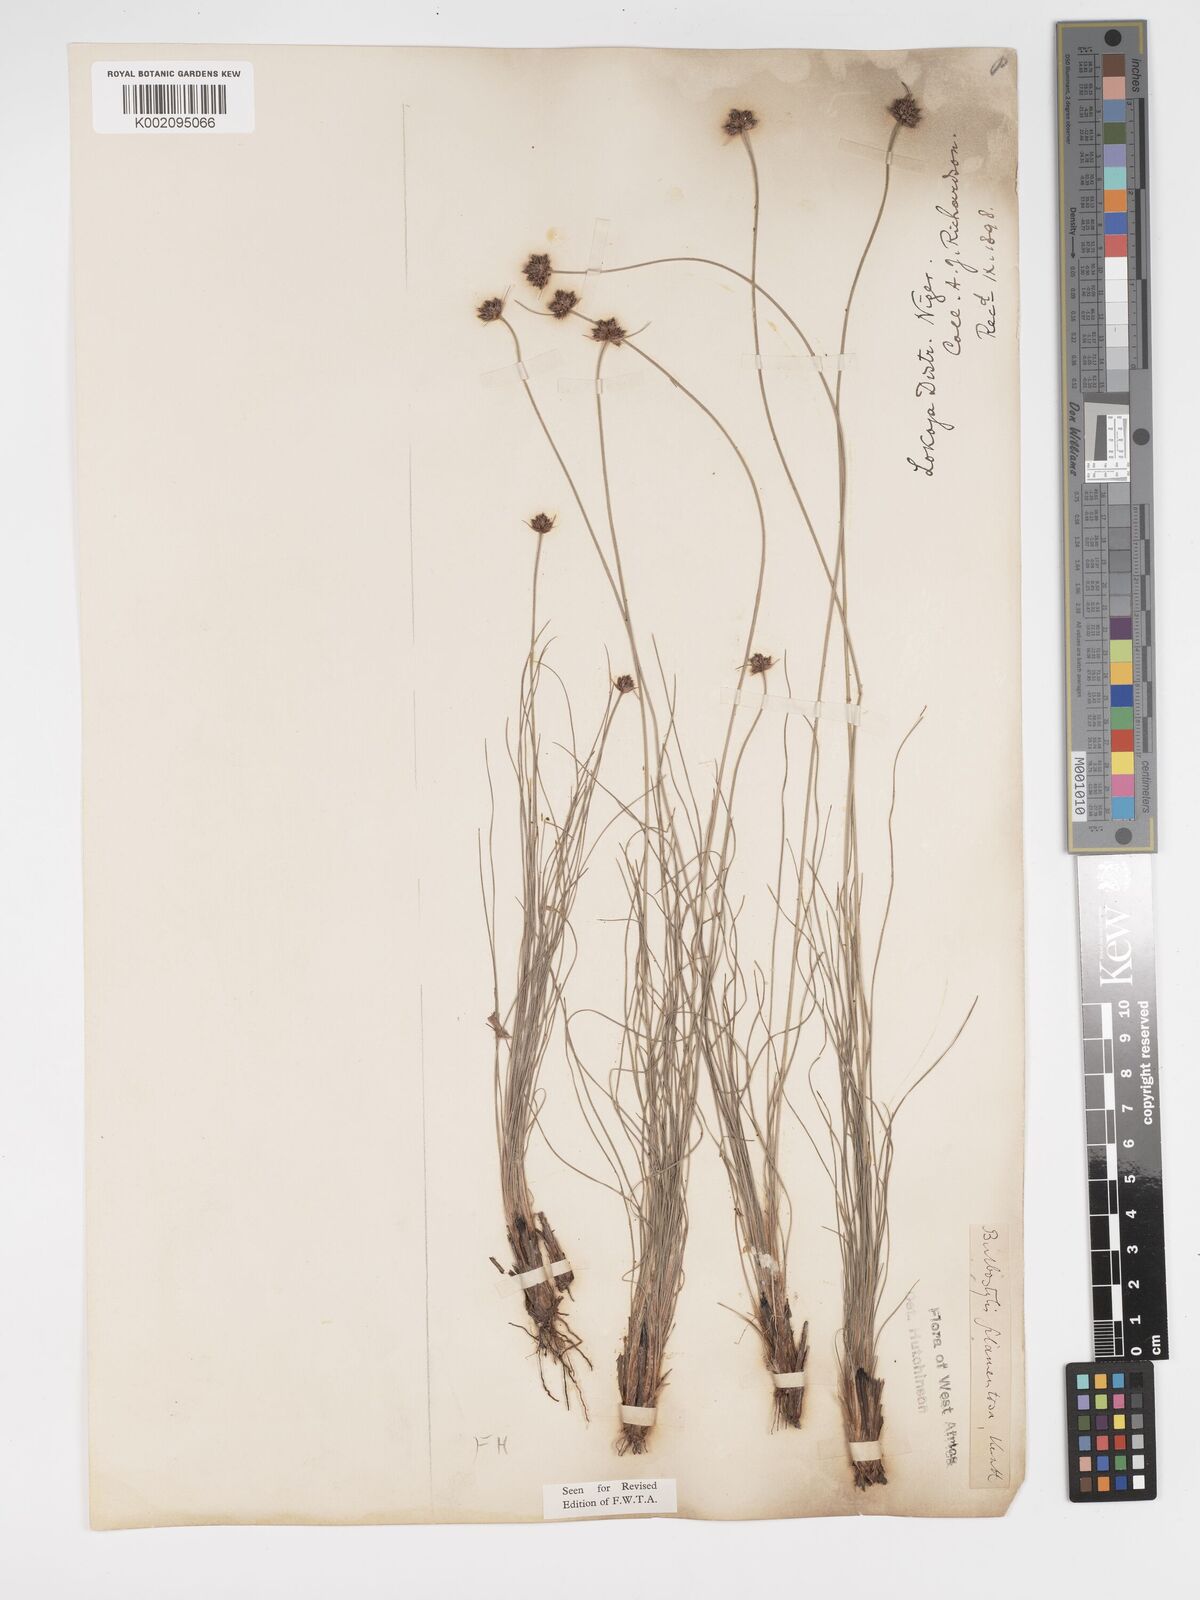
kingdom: Plantae
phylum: Tracheophyta
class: Liliopsida
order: Poales
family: Cyperaceae
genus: Bulbostylis
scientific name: Bulbostylis scabricaulis
